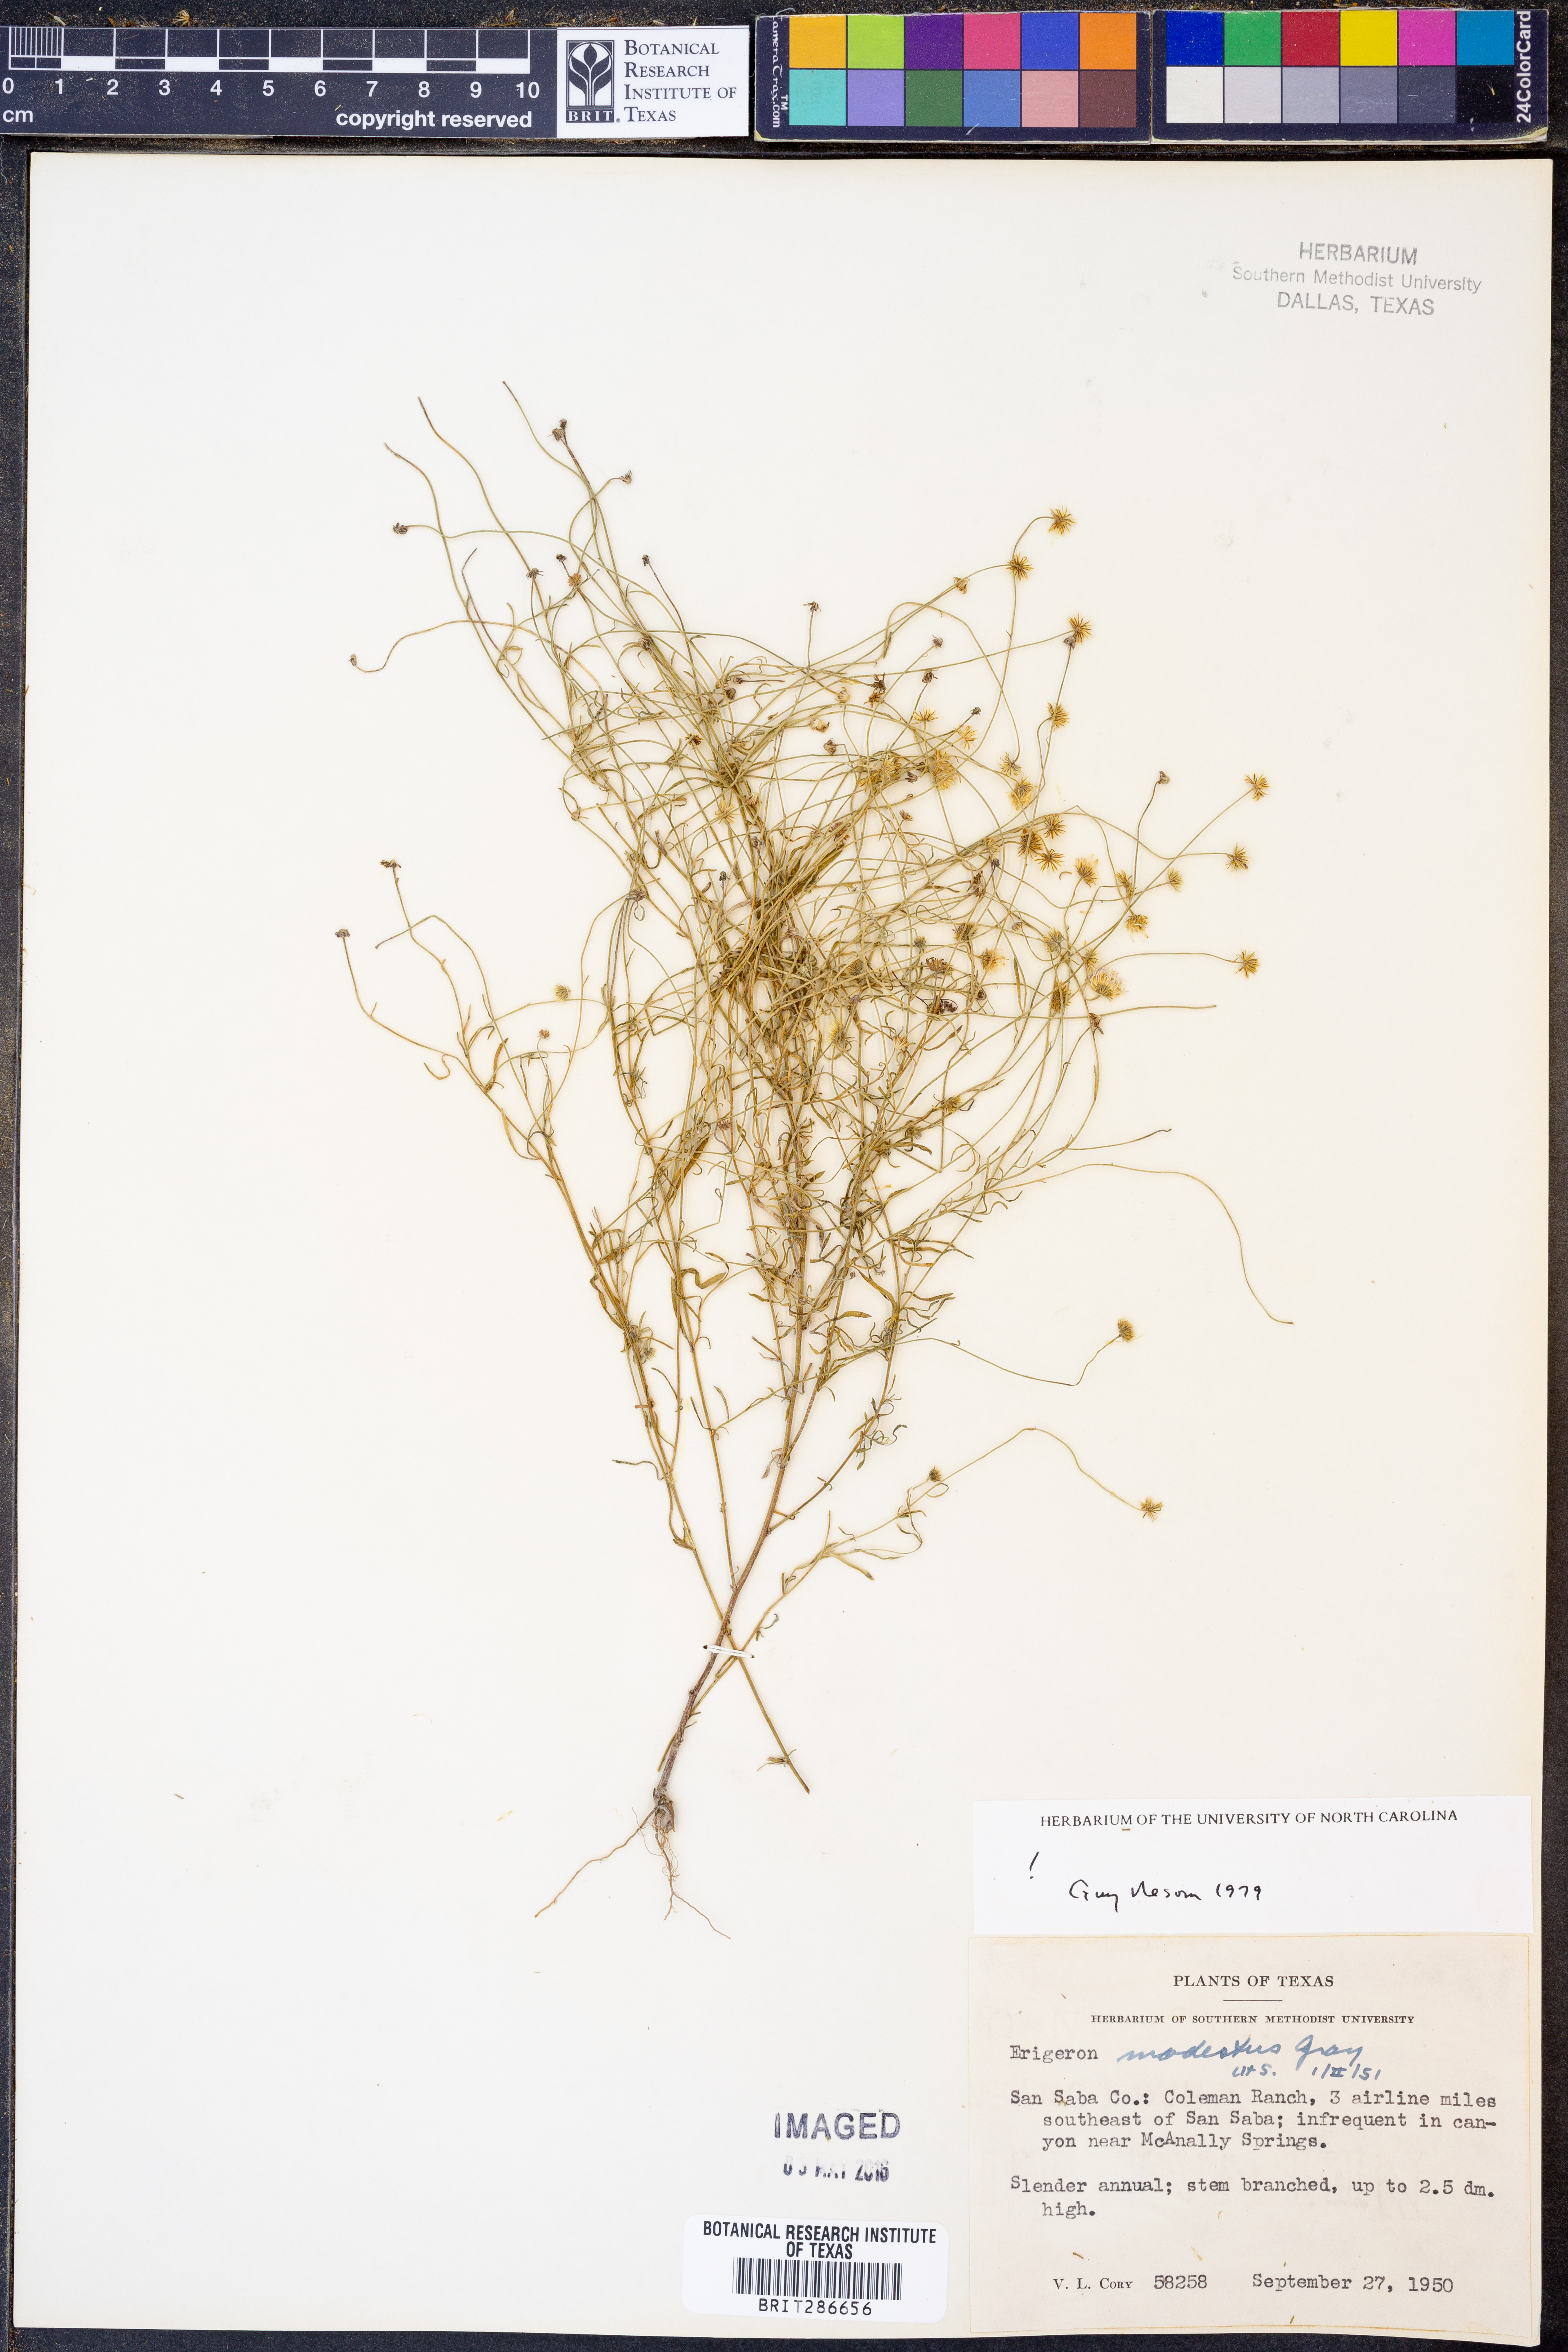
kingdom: Plantae
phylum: Tracheophyta
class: Magnoliopsida
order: Asterales
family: Asteraceae
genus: Erigeron
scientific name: Erigeron modestus
